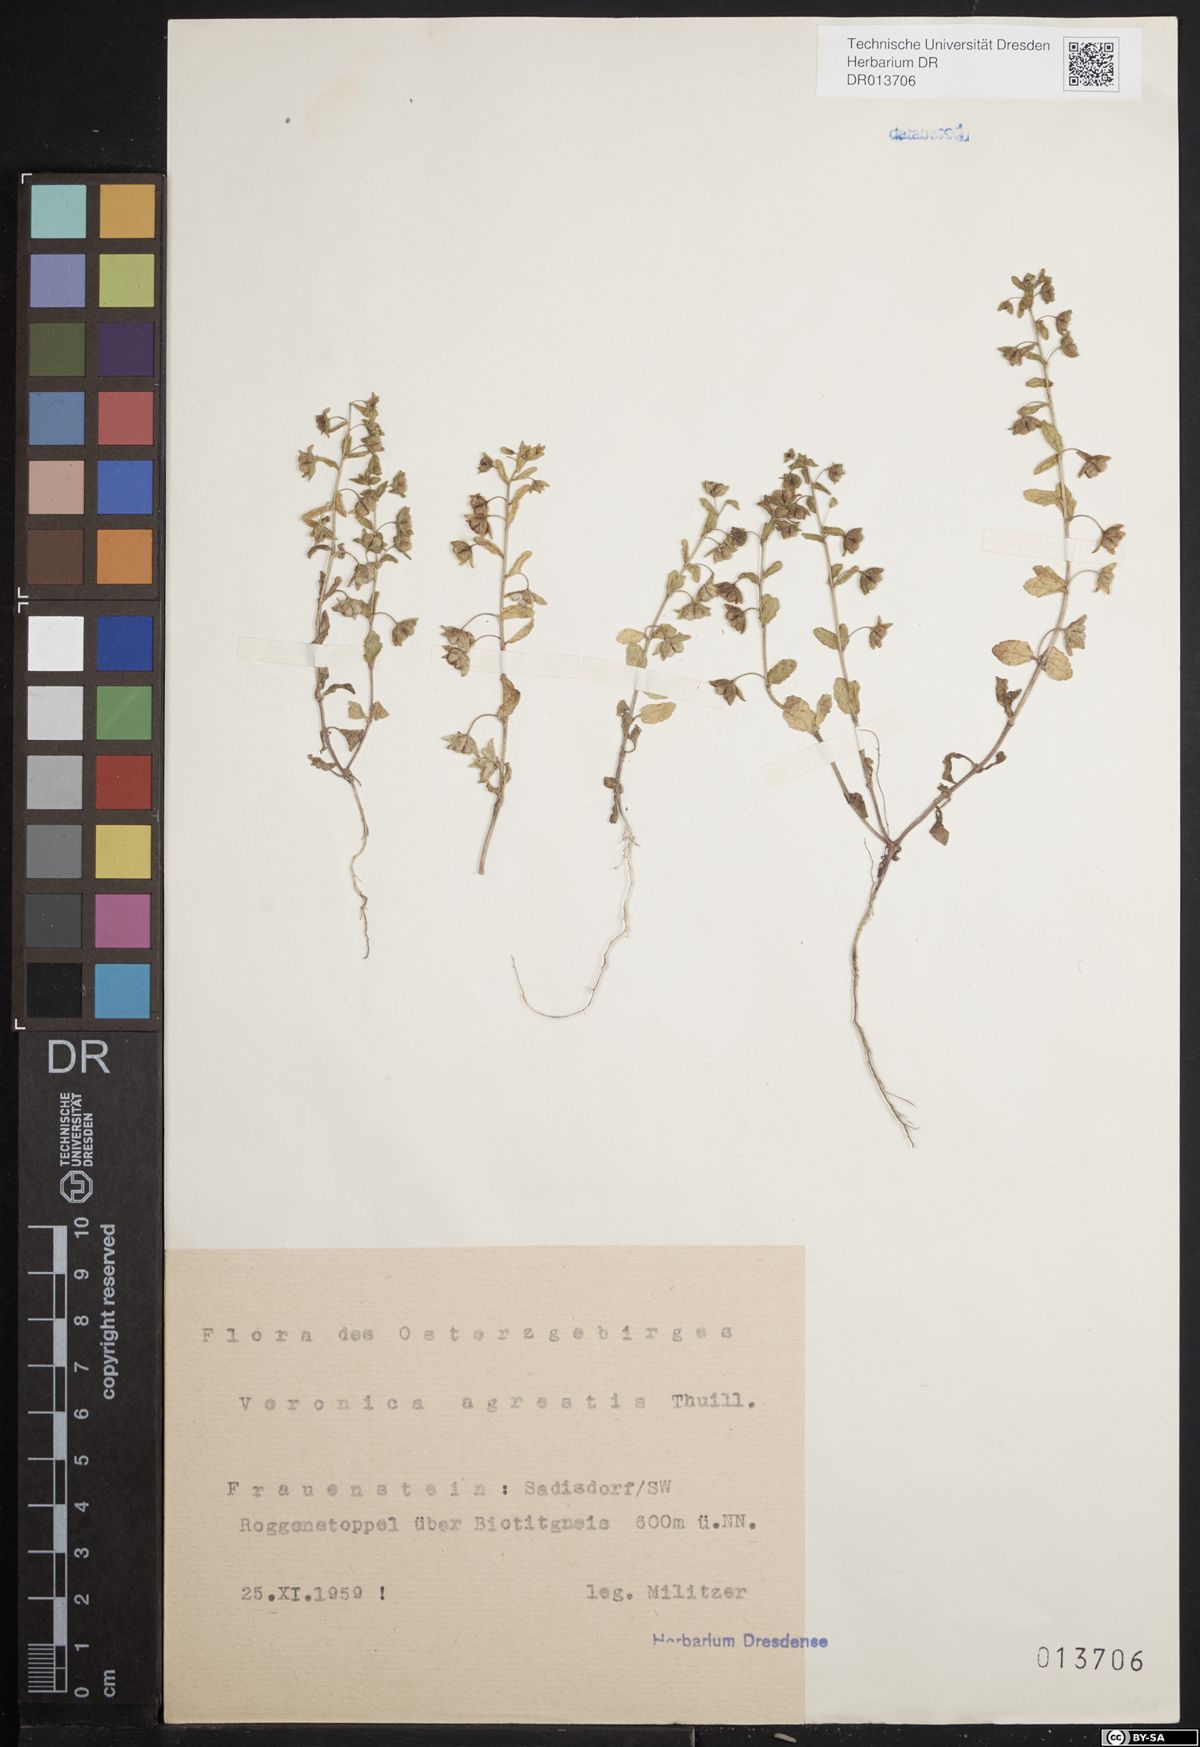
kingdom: Plantae
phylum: Tracheophyta
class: Magnoliopsida
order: Lamiales
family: Plantaginaceae
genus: Veronica
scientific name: Veronica agrestis
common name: Green field-speedwell
